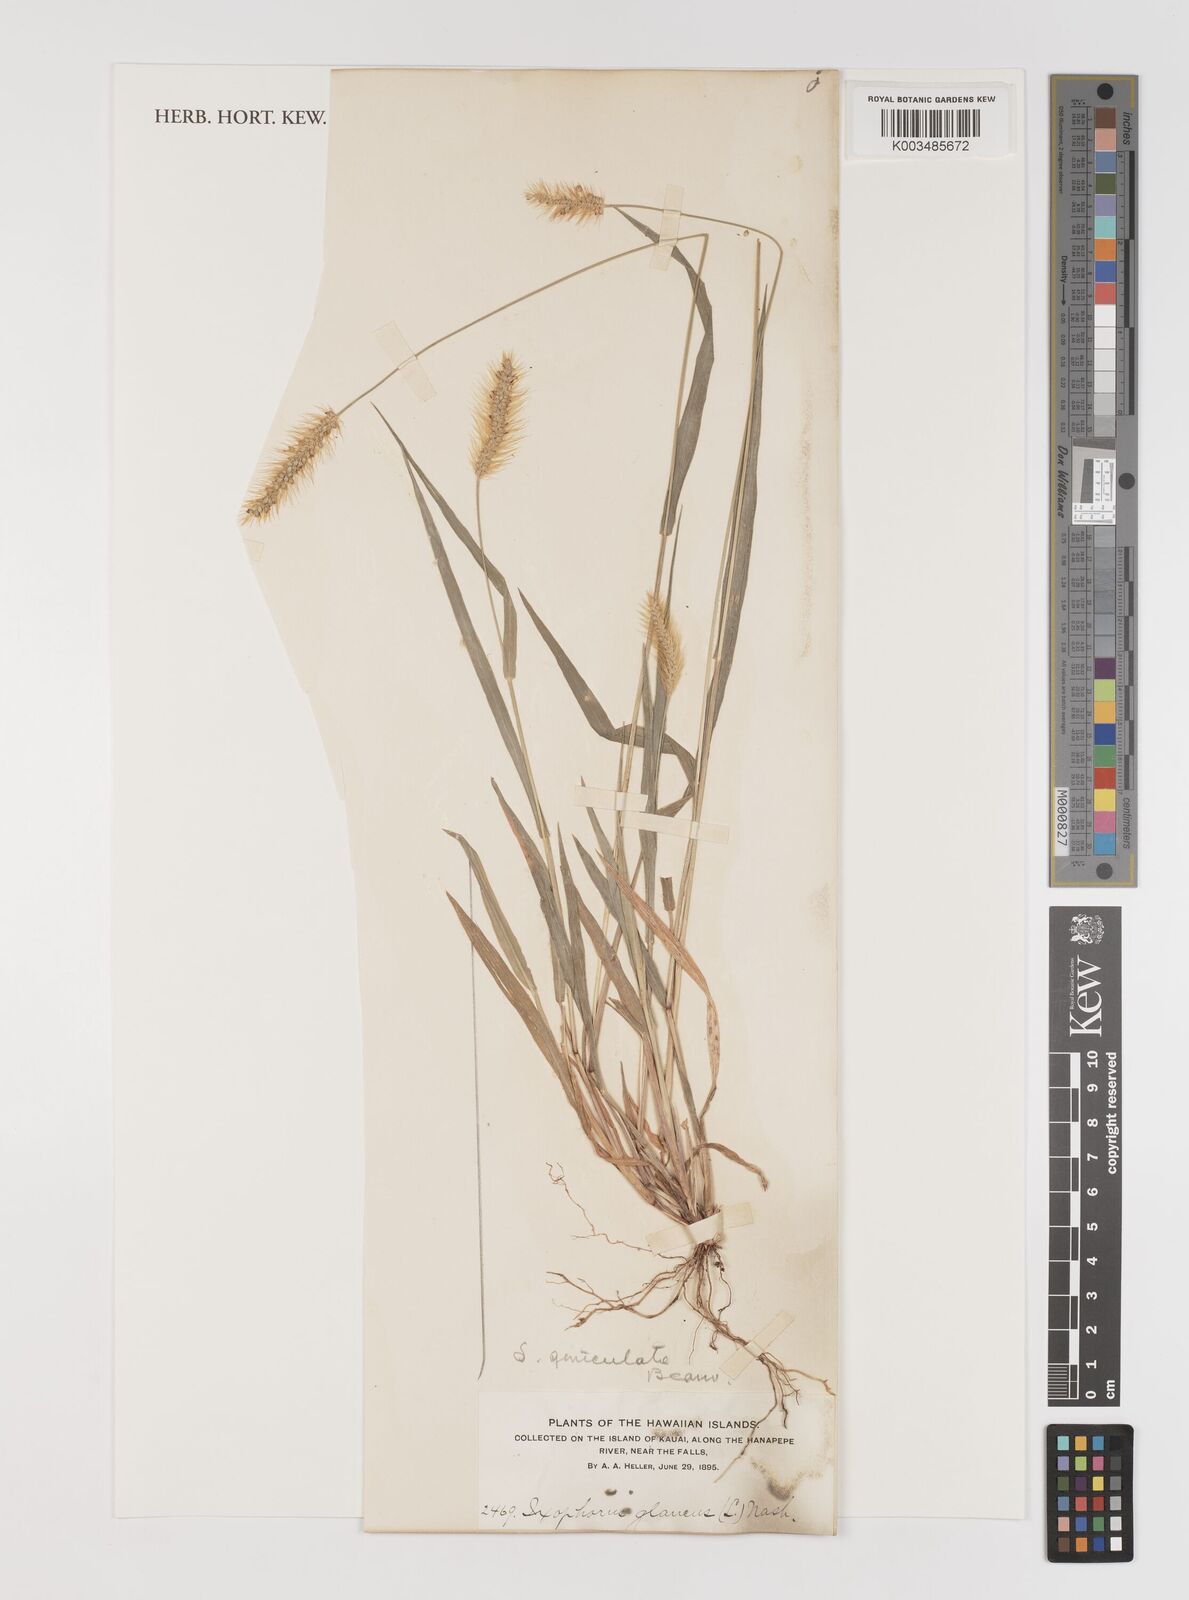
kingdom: Plantae
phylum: Tracheophyta
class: Liliopsida
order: Poales
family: Poaceae
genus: Setaria
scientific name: Setaria parviflora
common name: Knotroot bristle-grass
